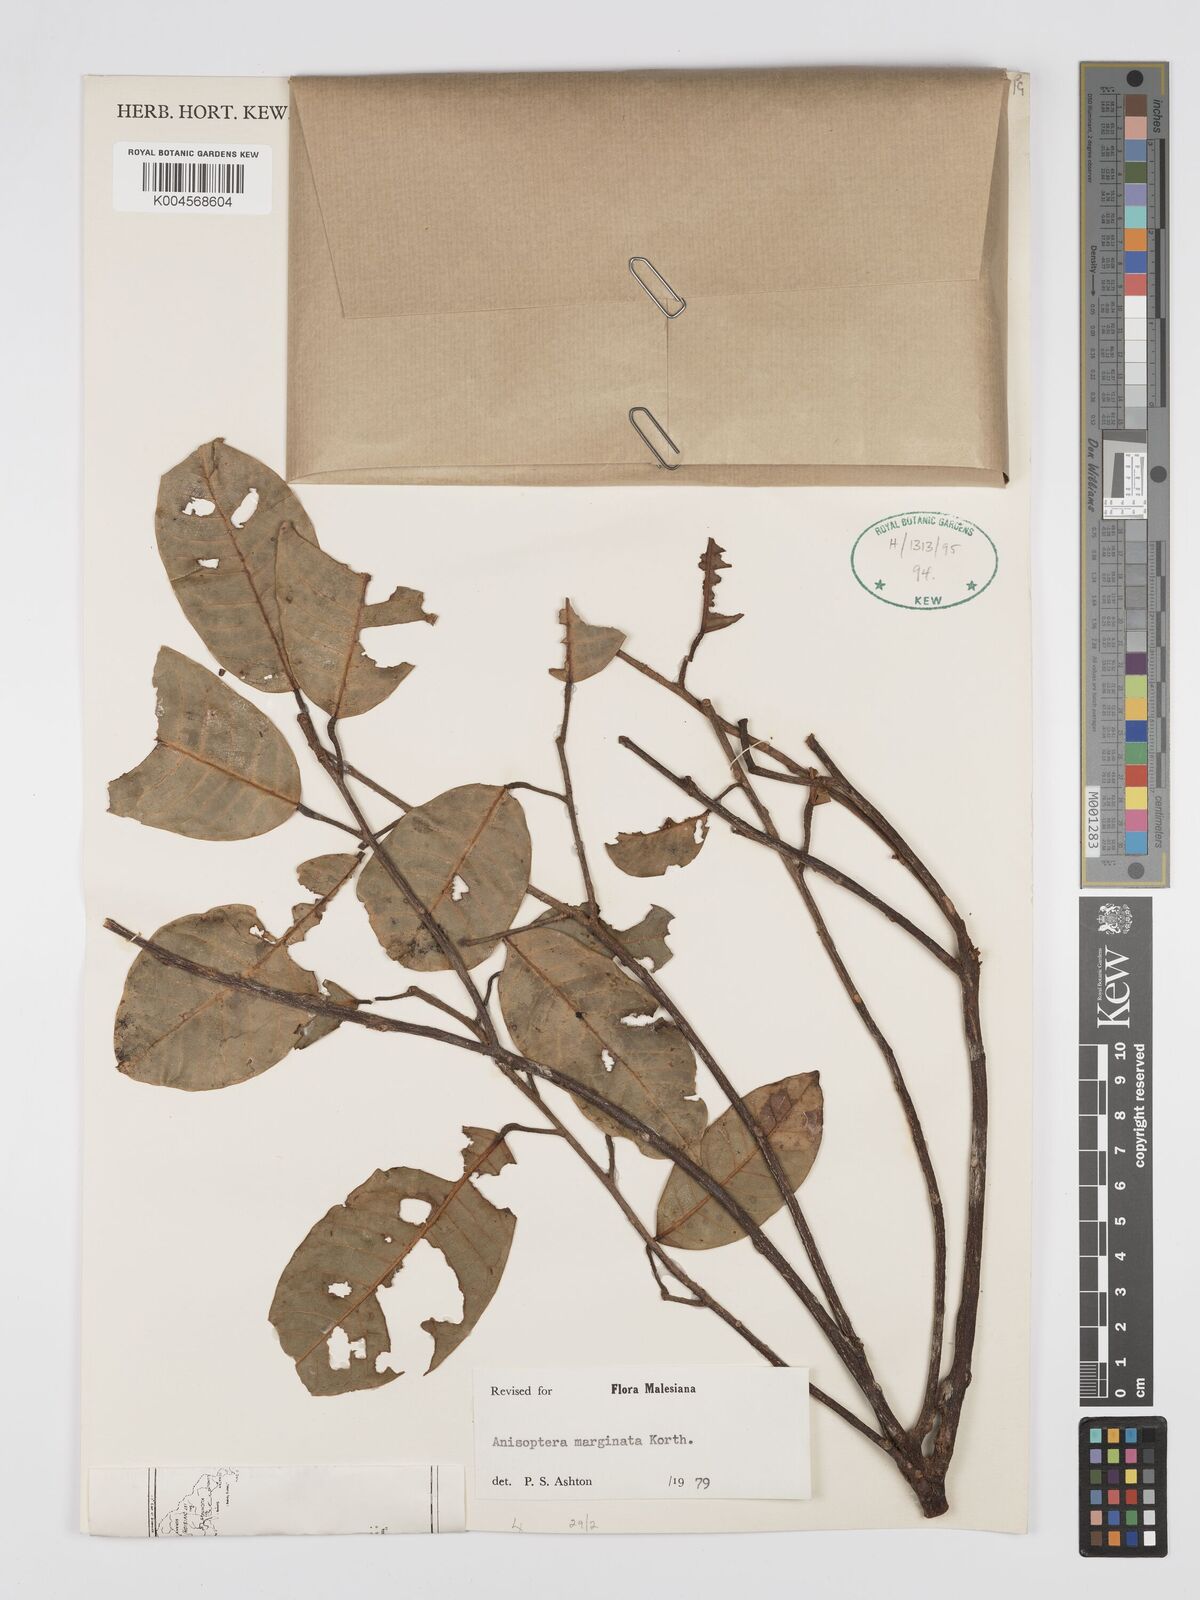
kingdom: Plantae
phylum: Tracheophyta
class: Magnoliopsida
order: Malvales
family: Dipterocarpaceae
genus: Anisoptera
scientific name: Anisoptera marginata
